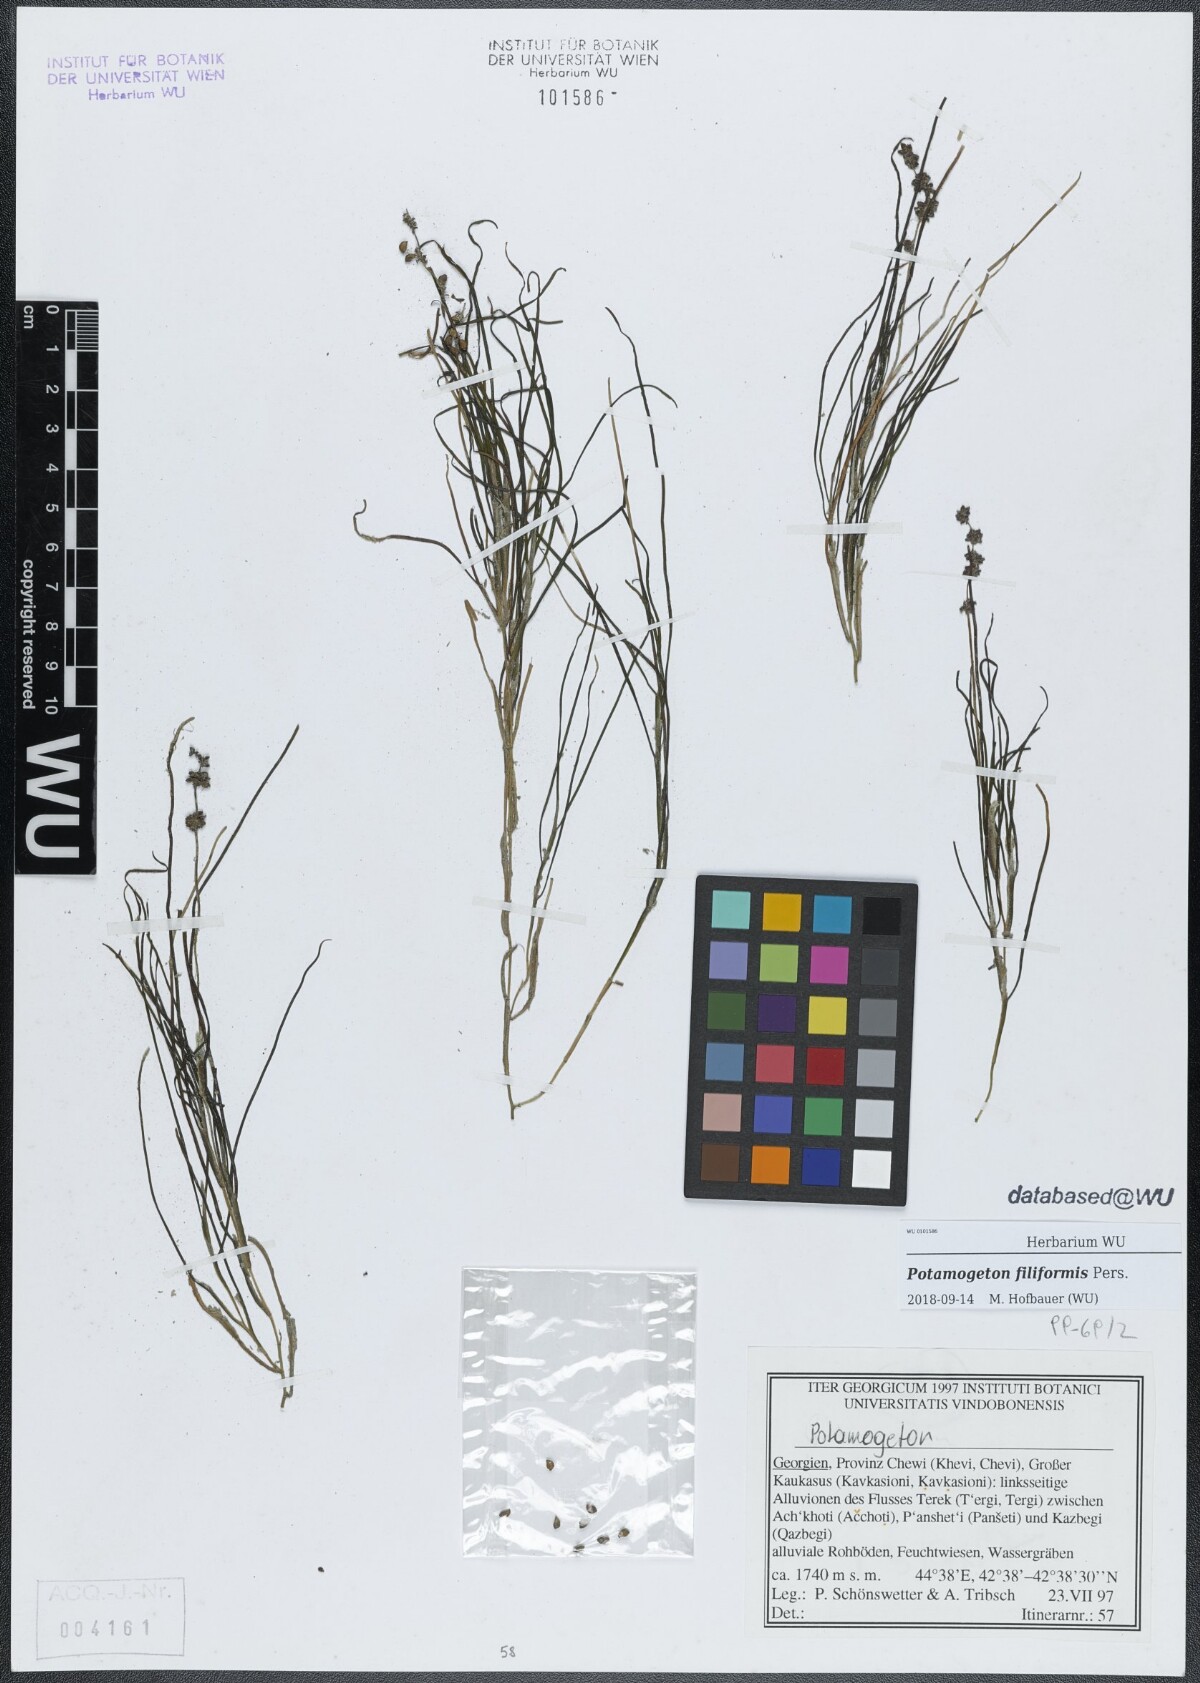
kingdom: Plantae
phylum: Tracheophyta
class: Liliopsida
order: Alismatales
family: Potamogetonaceae
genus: Stuckenia
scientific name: Stuckenia filiformis
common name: Alpine thread-leaved pondweed
